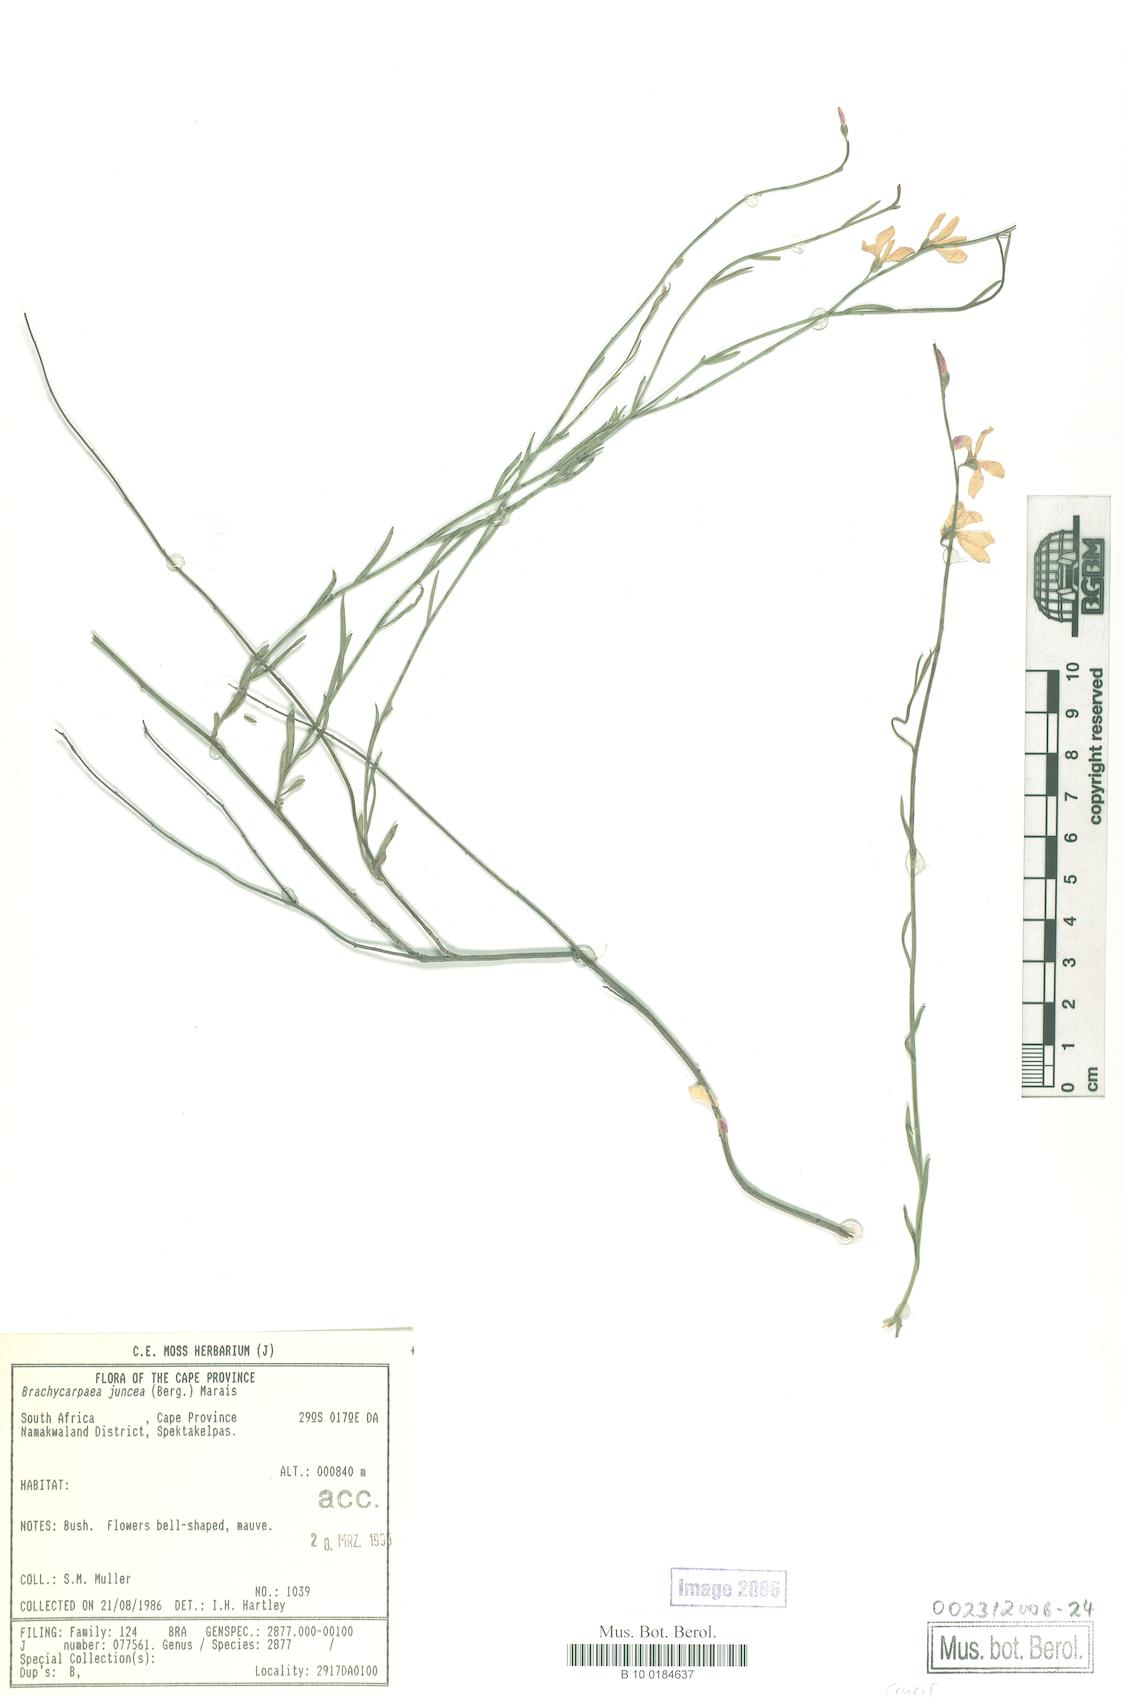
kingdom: Plantae
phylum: Tracheophyta
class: Magnoliopsida
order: Brassicales
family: Brassicaceae
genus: Heliophila
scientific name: Heliophila juncea
